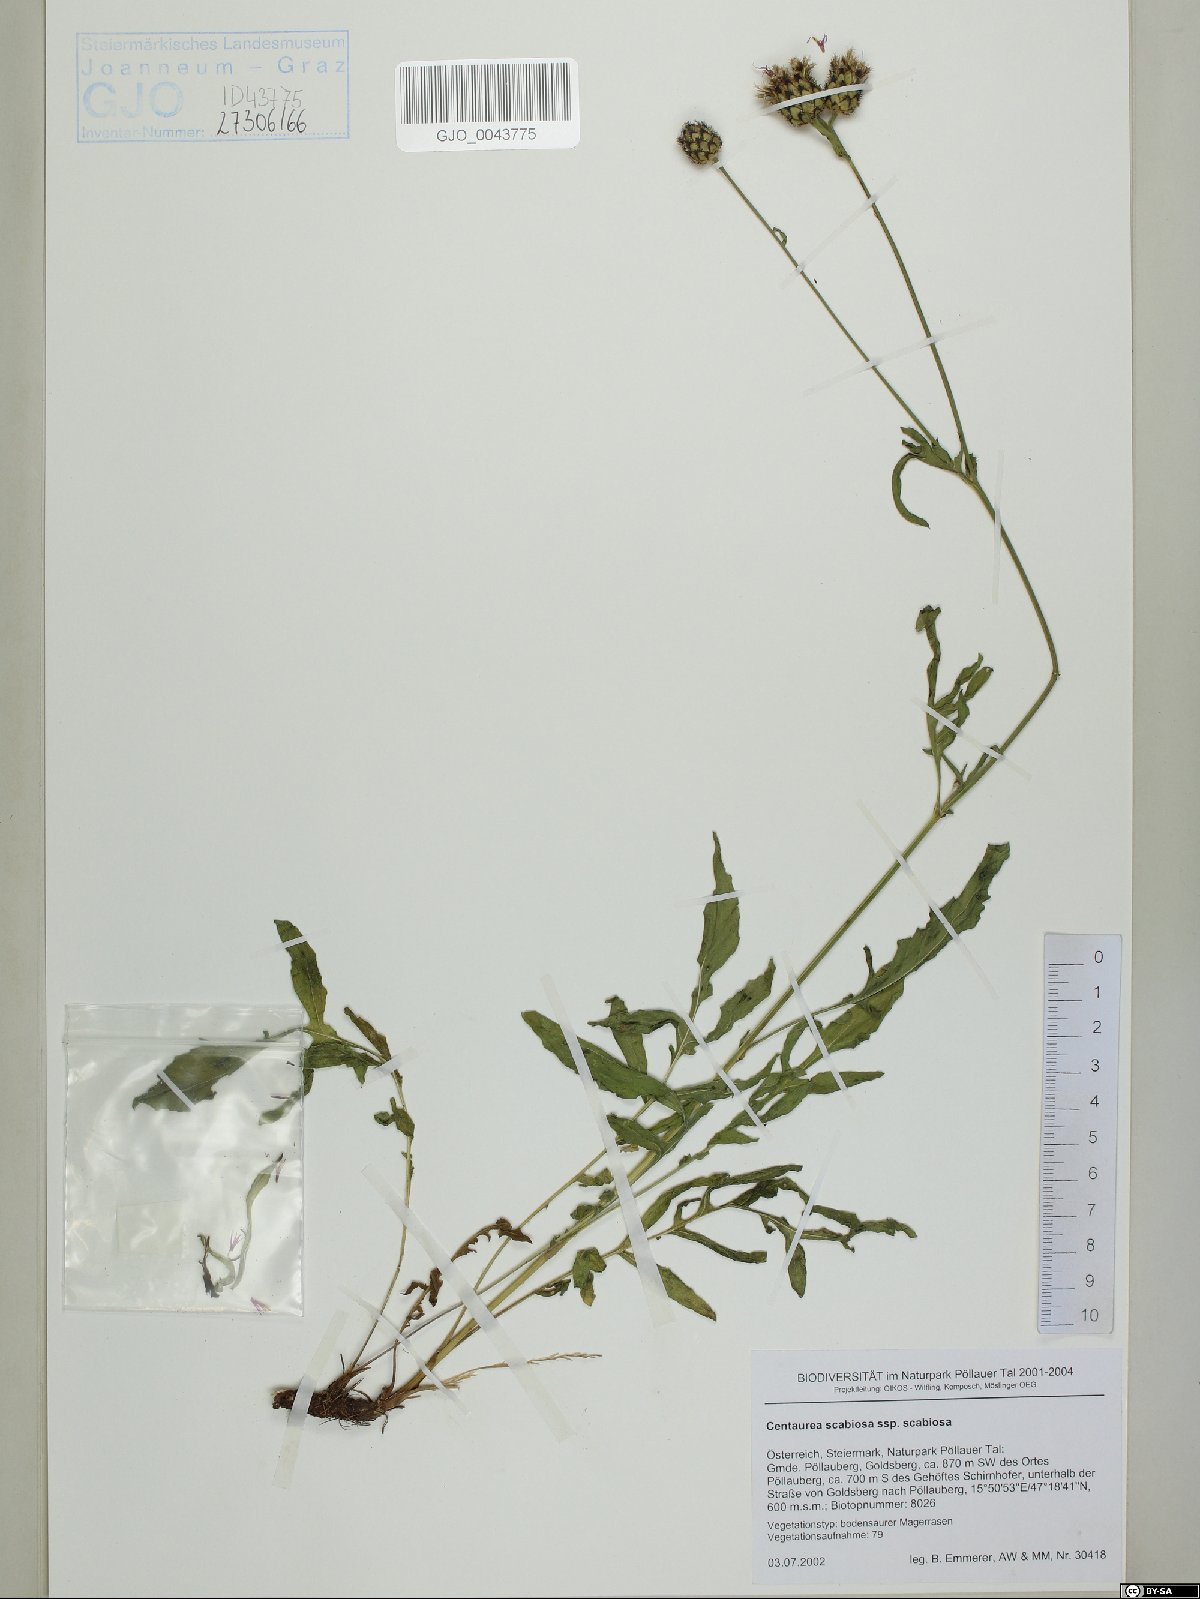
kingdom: Plantae
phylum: Tracheophyta
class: Magnoliopsida
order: Asterales
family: Asteraceae
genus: Centaurea
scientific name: Centaurea scabiosa
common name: Greater knapweed
